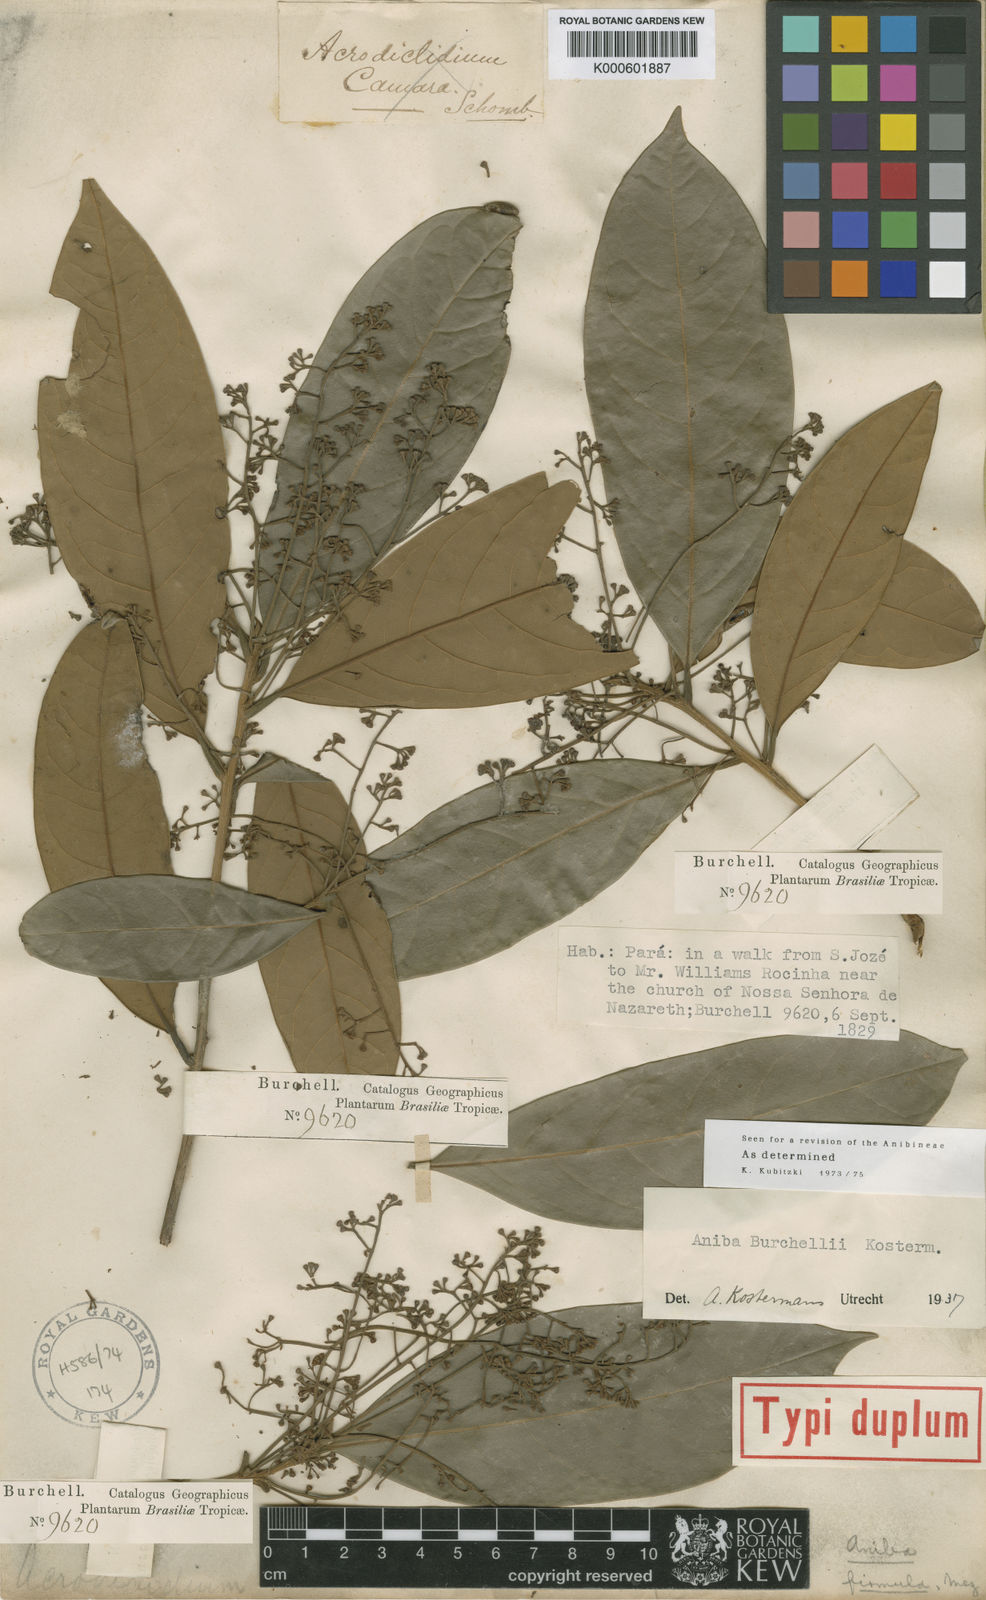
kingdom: Plantae
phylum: Tracheophyta
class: Magnoliopsida
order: Laurales
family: Lauraceae
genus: Aniba
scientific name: Aniba burchellii
